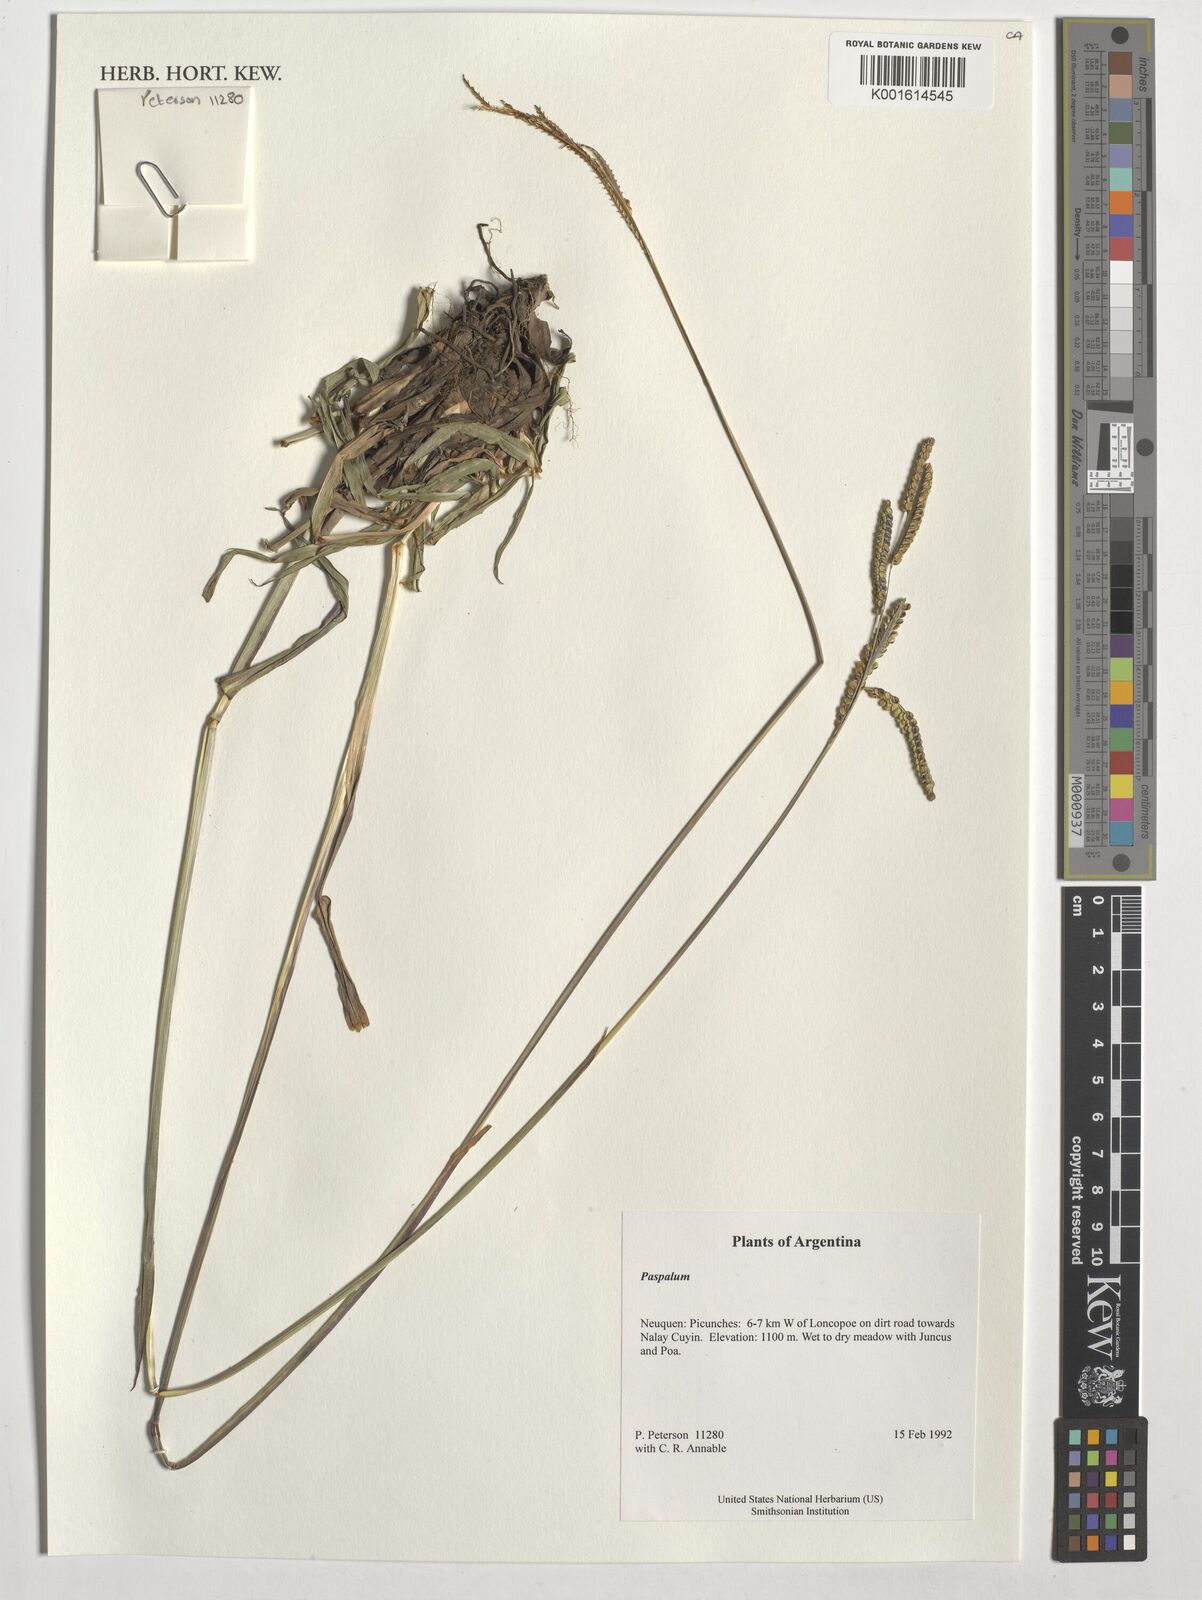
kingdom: Plantae
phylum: Tracheophyta
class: Liliopsida
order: Poales
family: Poaceae
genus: Paspalum
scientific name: Paspalum
